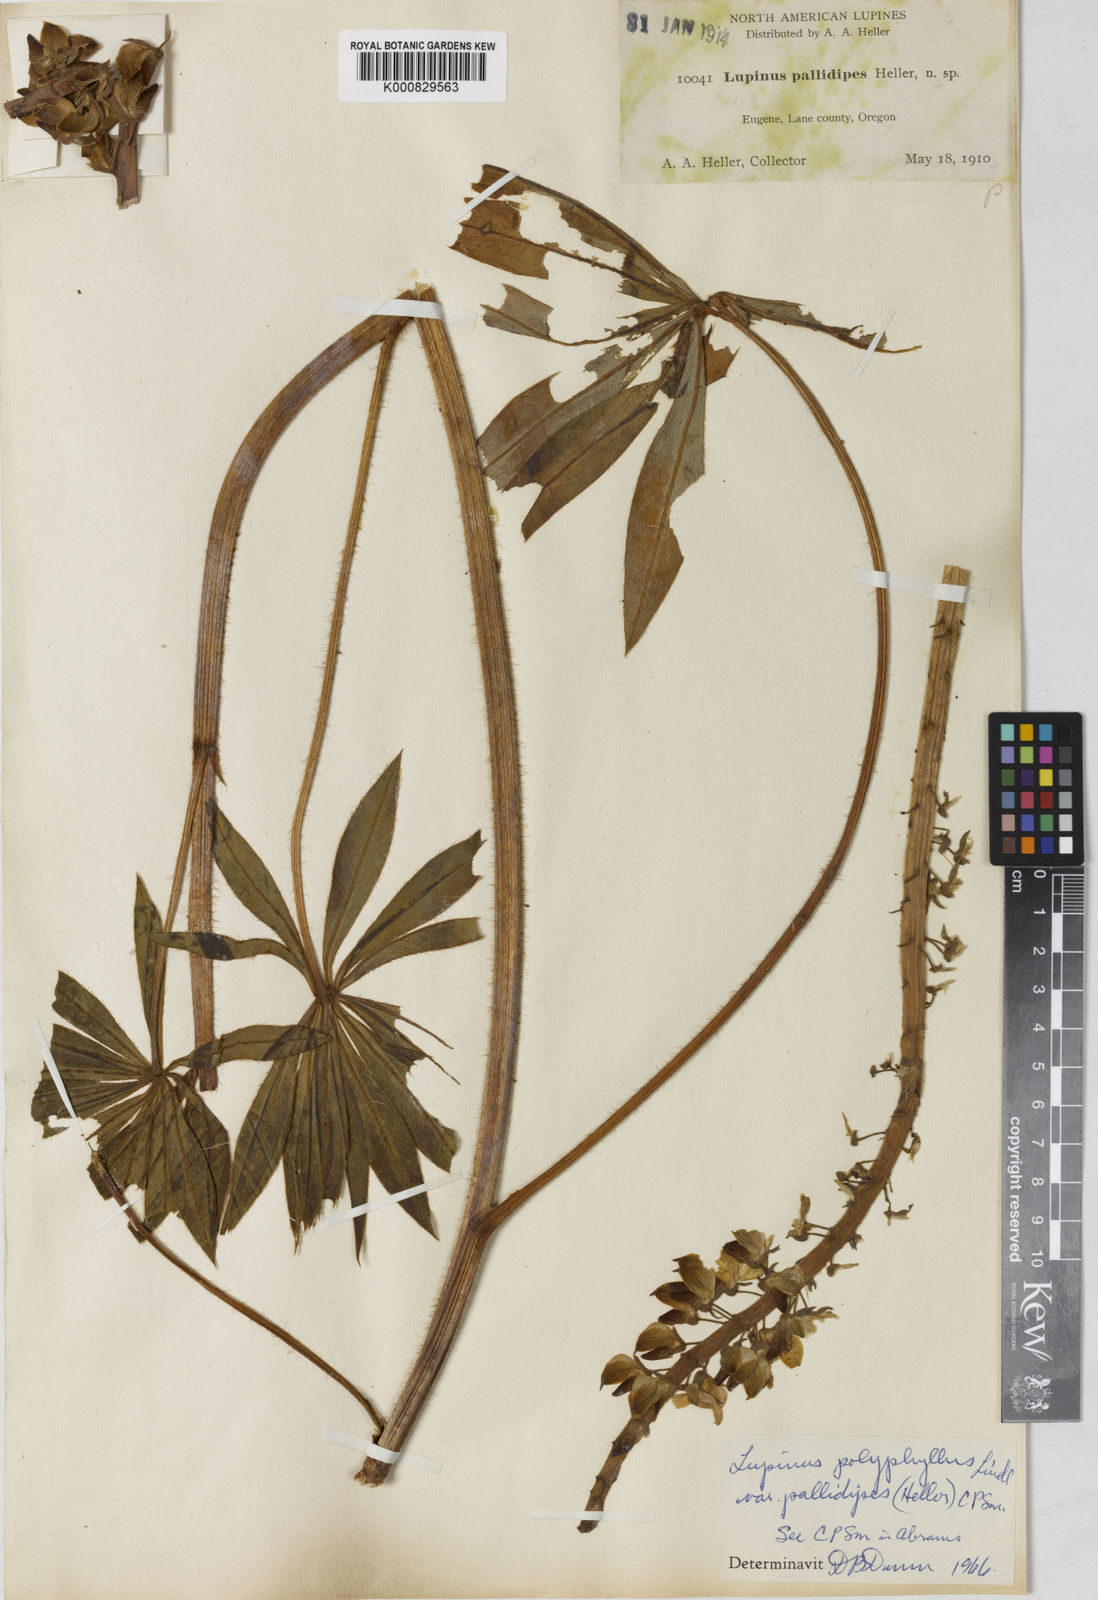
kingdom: Plantae
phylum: Tracheophyta
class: Magnoliopsida
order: Fabales
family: Fabaceae
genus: Lupinus
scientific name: Lupinus polyphyllus
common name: Garden lupin
